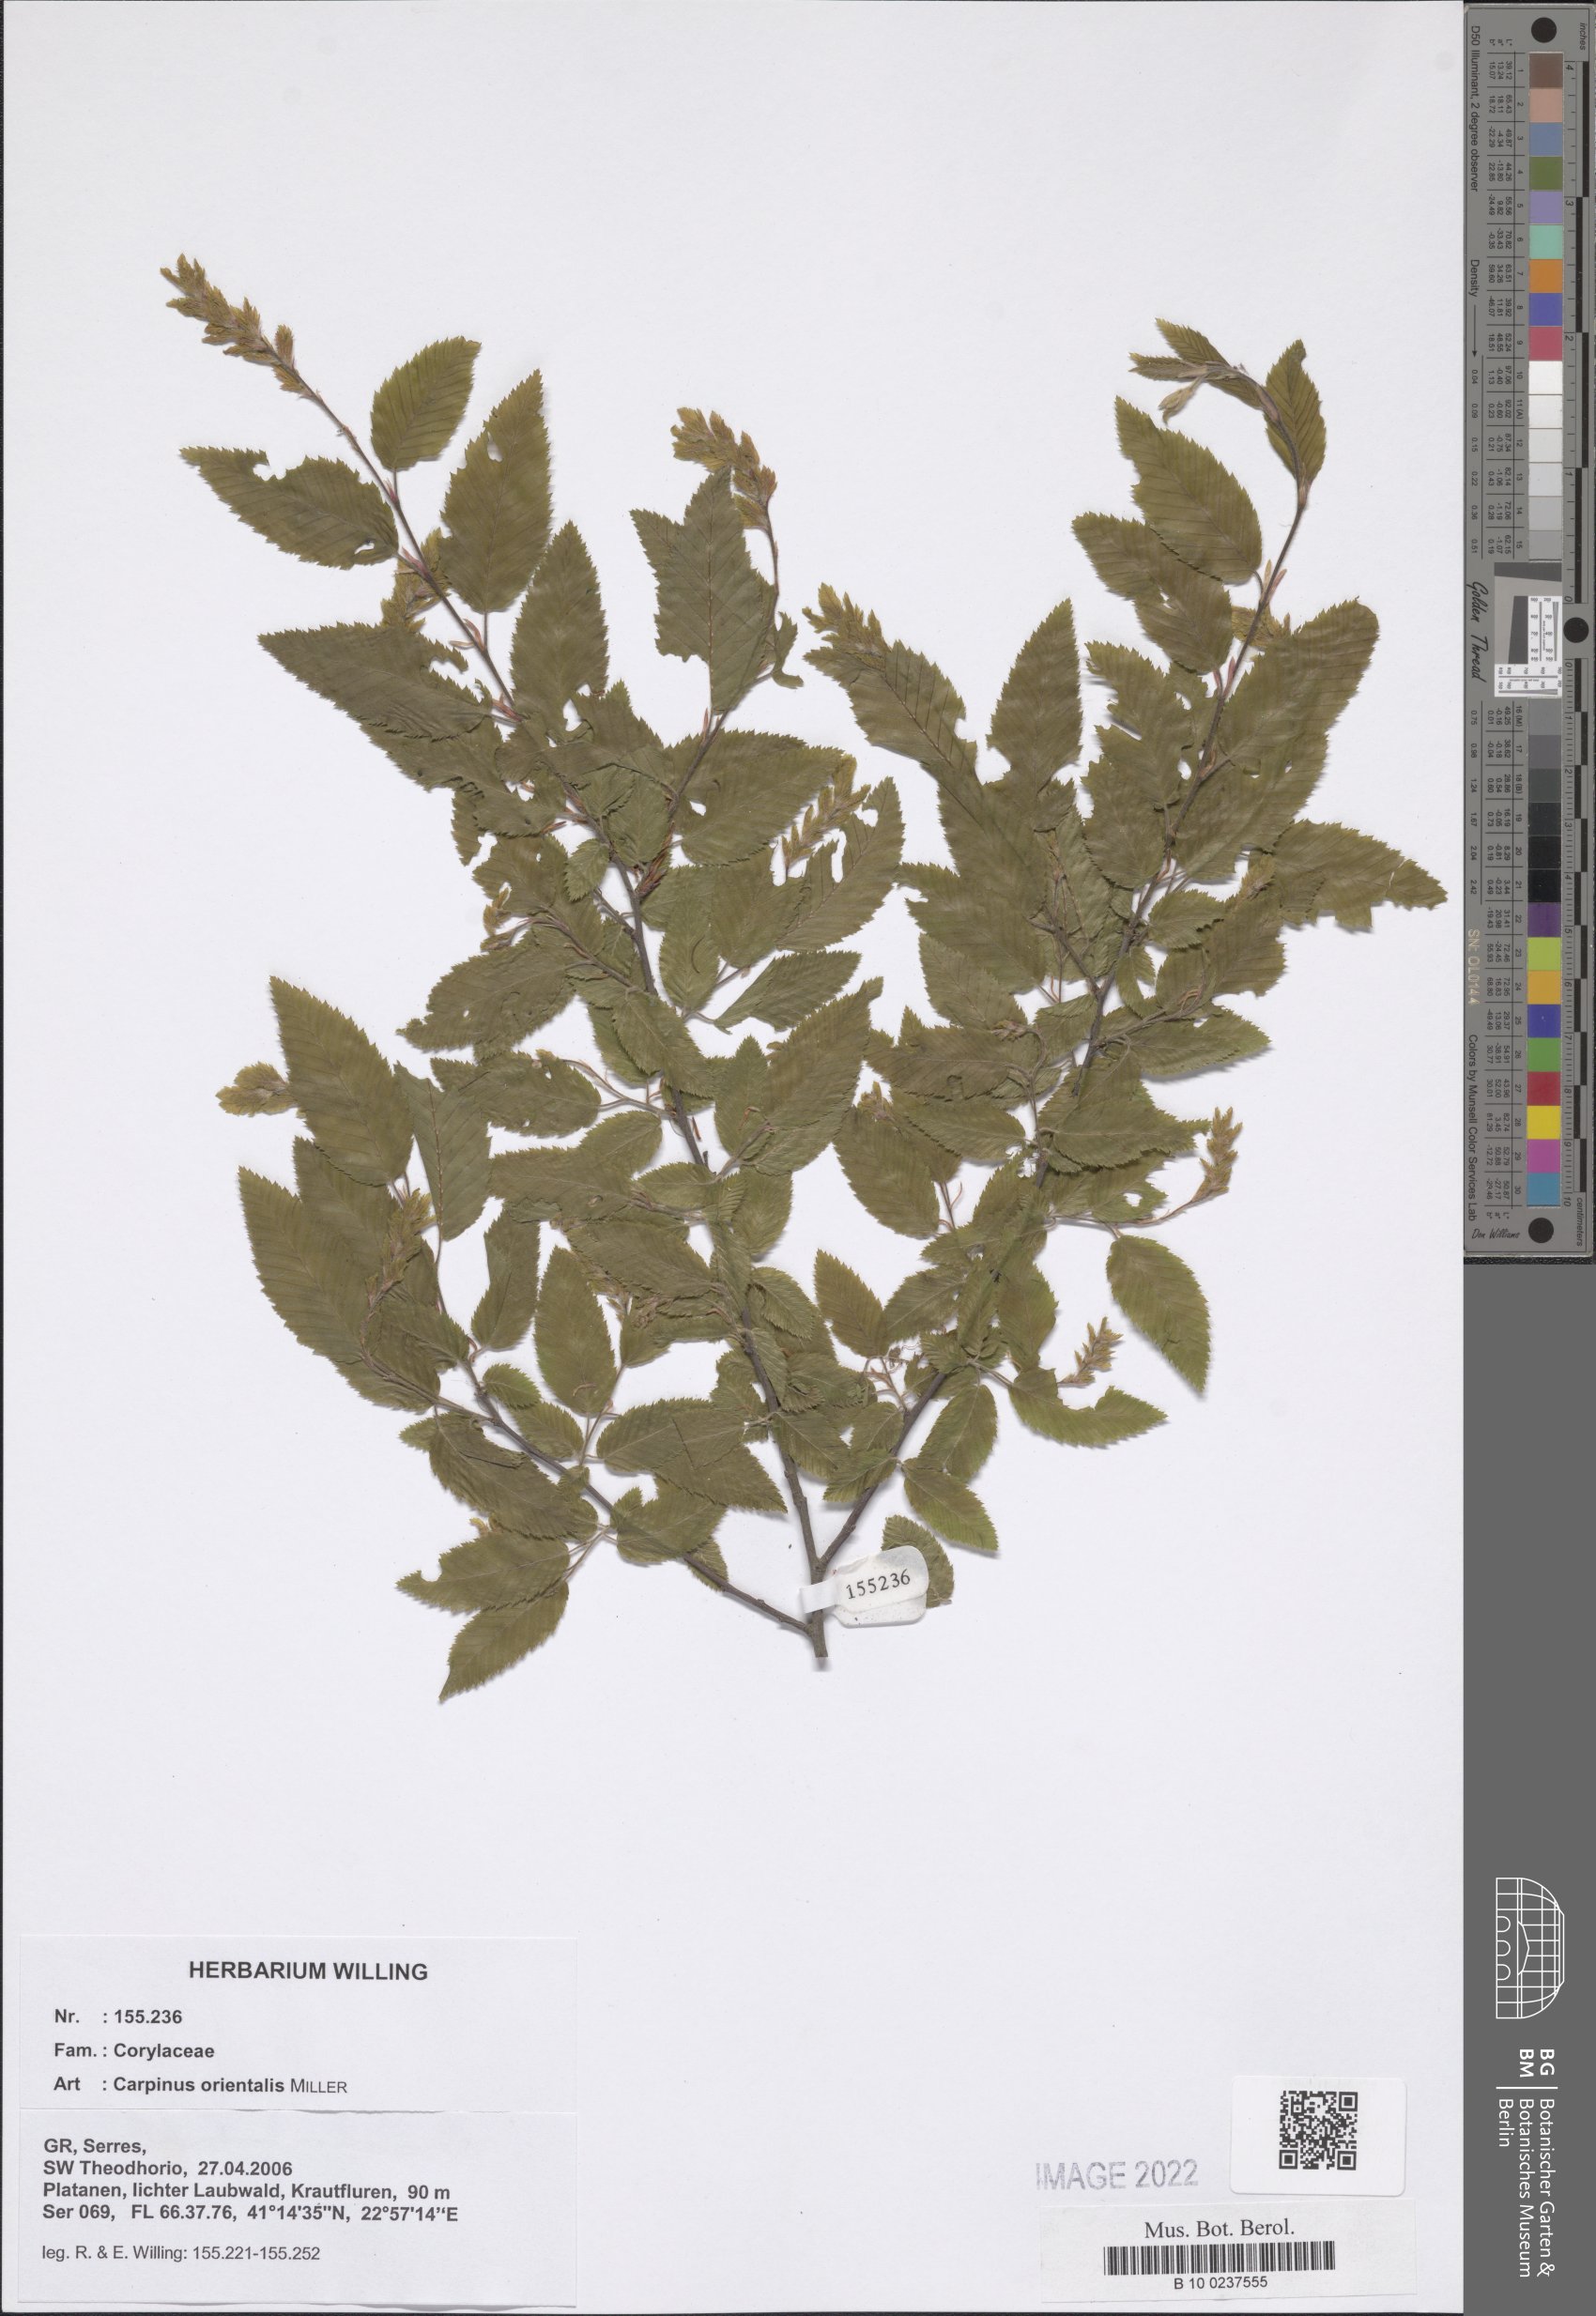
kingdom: Plantae
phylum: Tracheophyta
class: Magnoliopsida
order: Fagales
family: Betulaceae
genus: Carpinus
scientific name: Carpinus orientalis
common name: Eastern hornbeam
